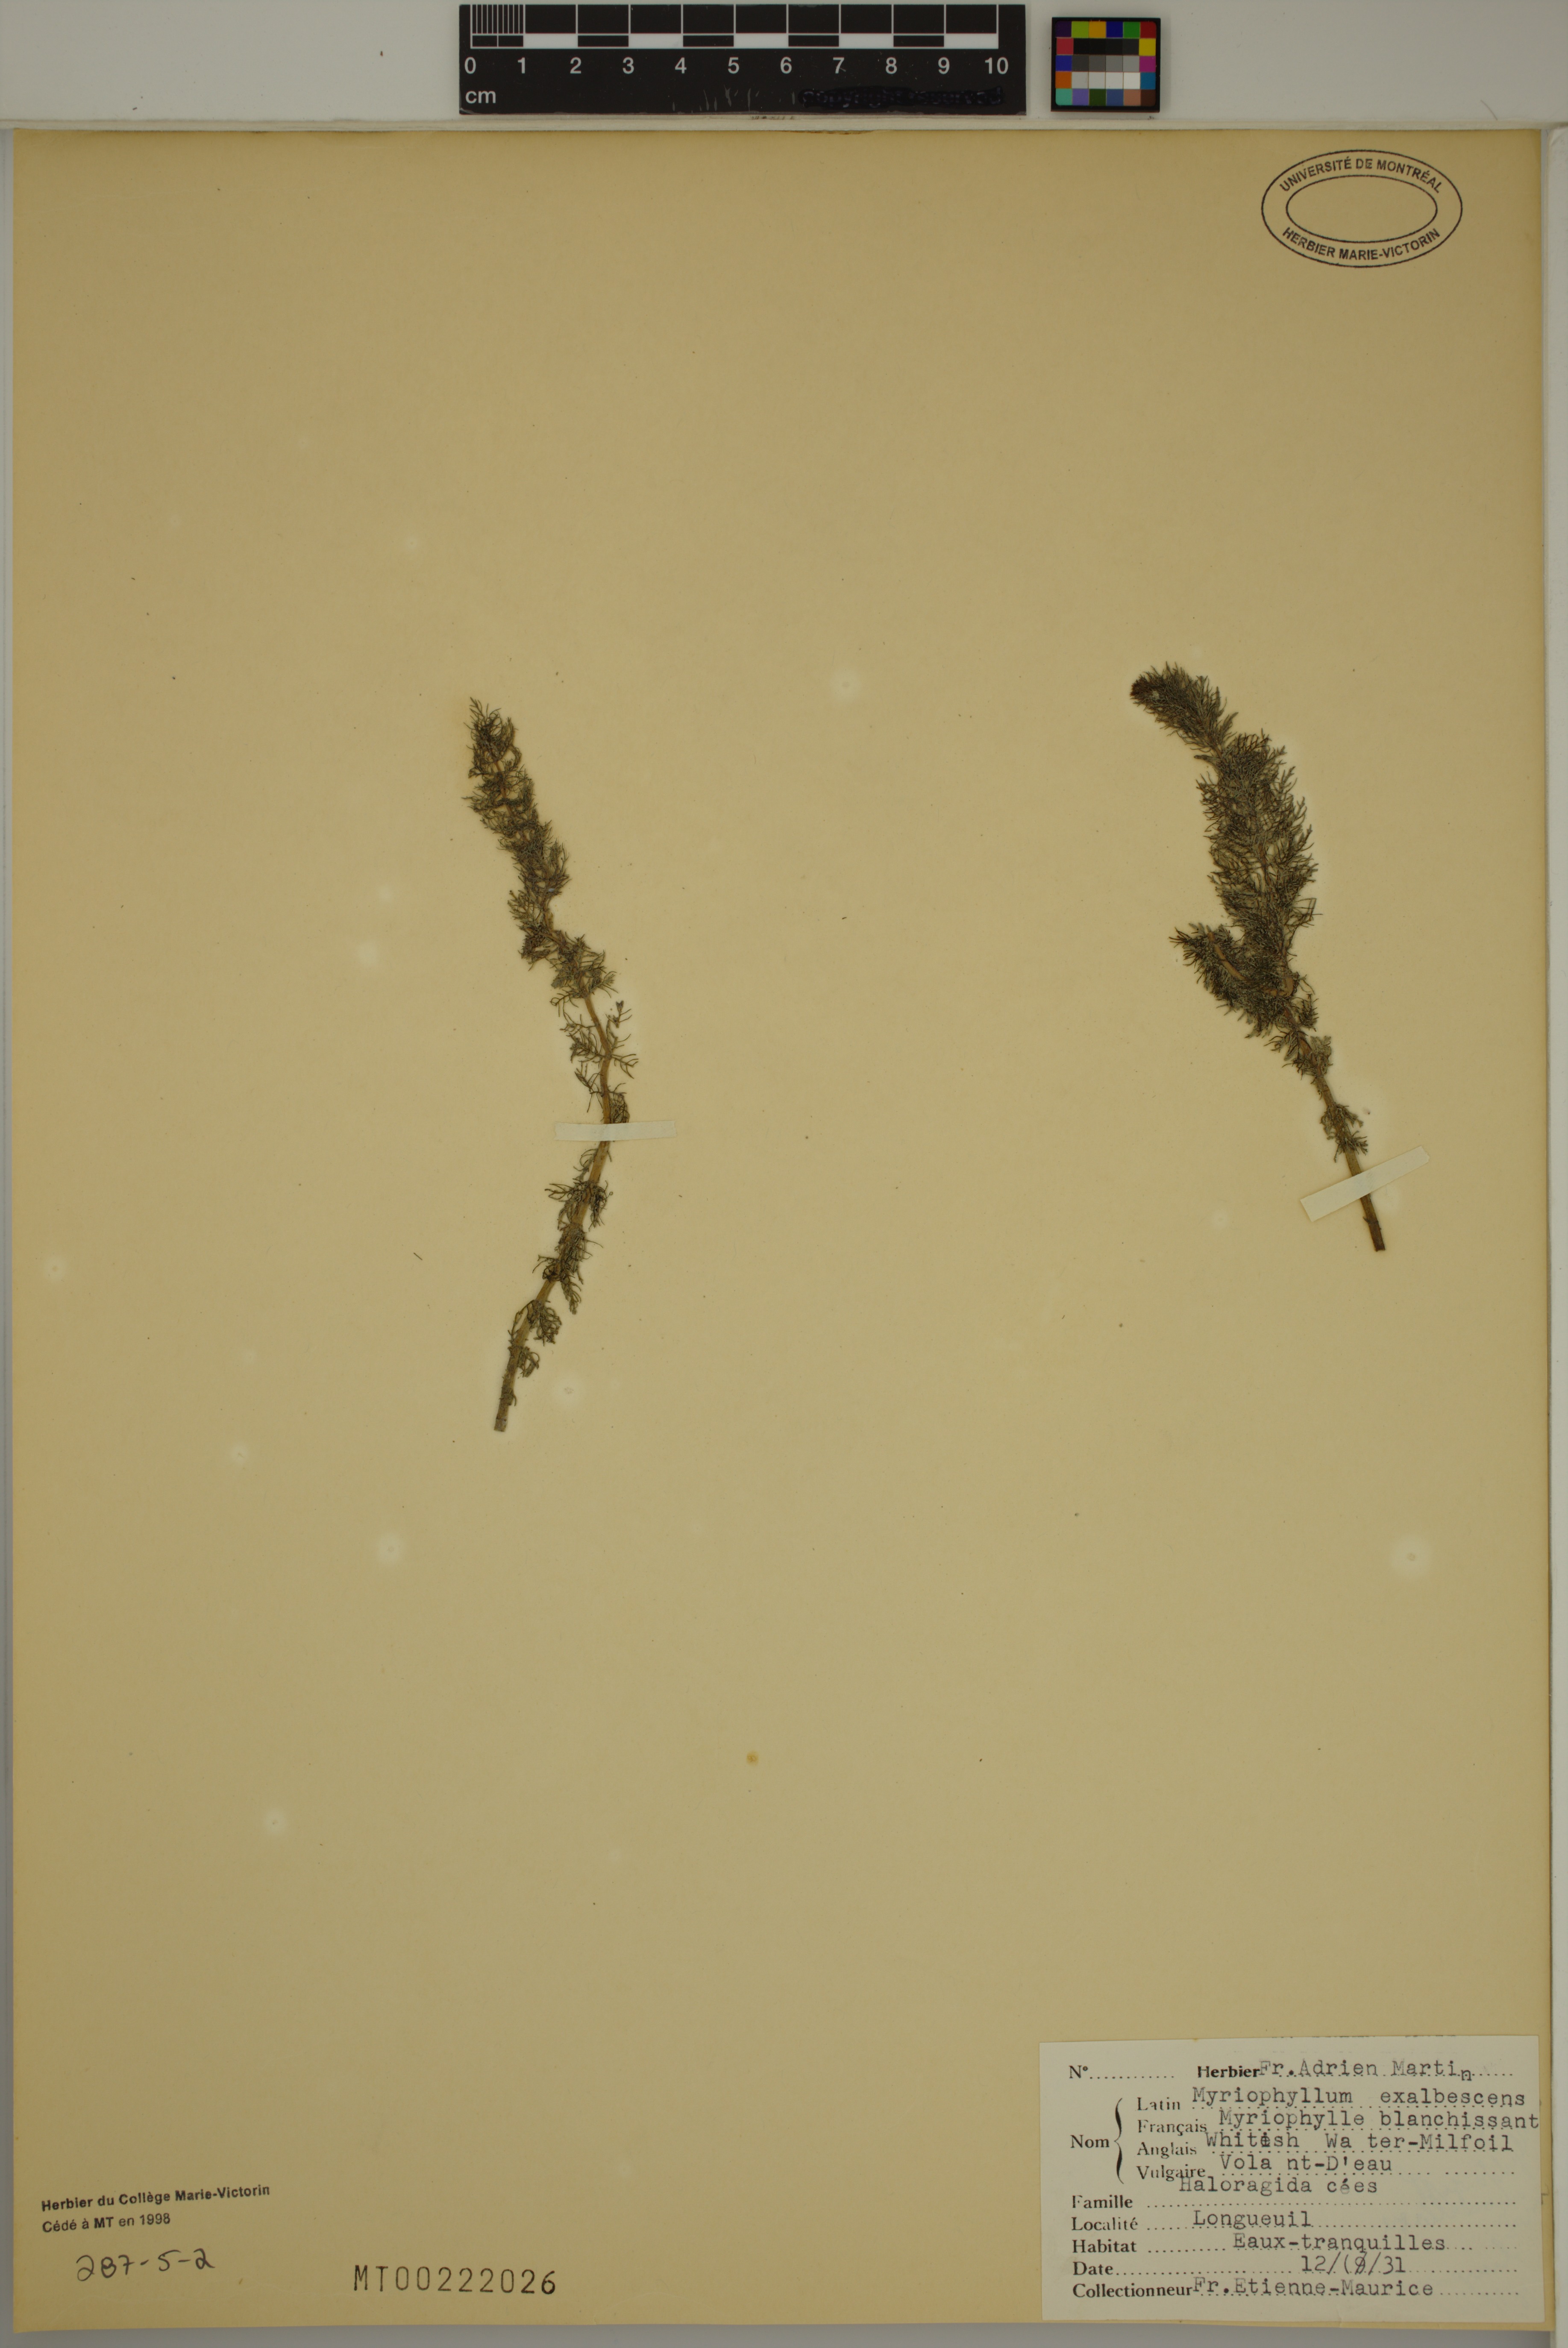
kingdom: Plantae
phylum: Tracheophyta
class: Magnoliopsida
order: Saxifragales
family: Haloragaceae
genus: Myriophyllum
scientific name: Myriophyllum sibiricum
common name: Siberian water-milfoil
